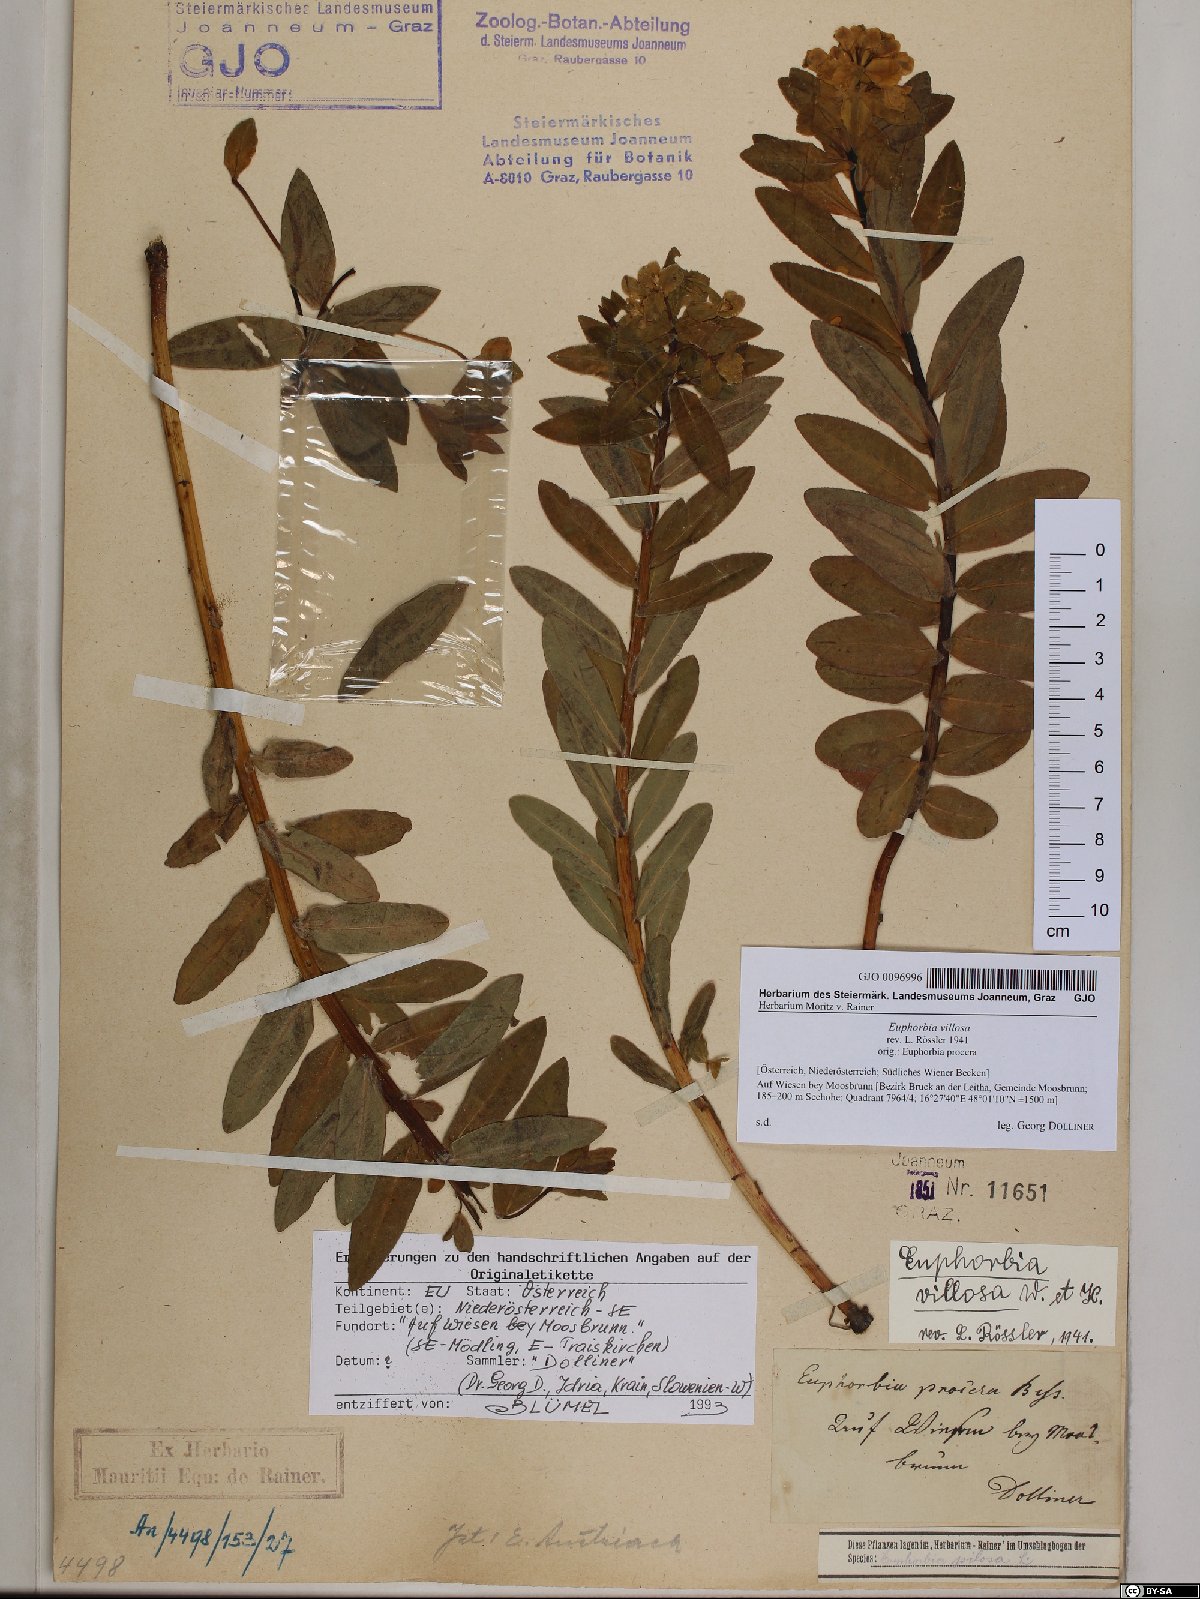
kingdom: Plantae
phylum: Tracheophyta
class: Magnoliopsida
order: Malpighiales
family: Euphorbiaceae
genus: Euphorbia
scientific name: Euphorbia illirica
